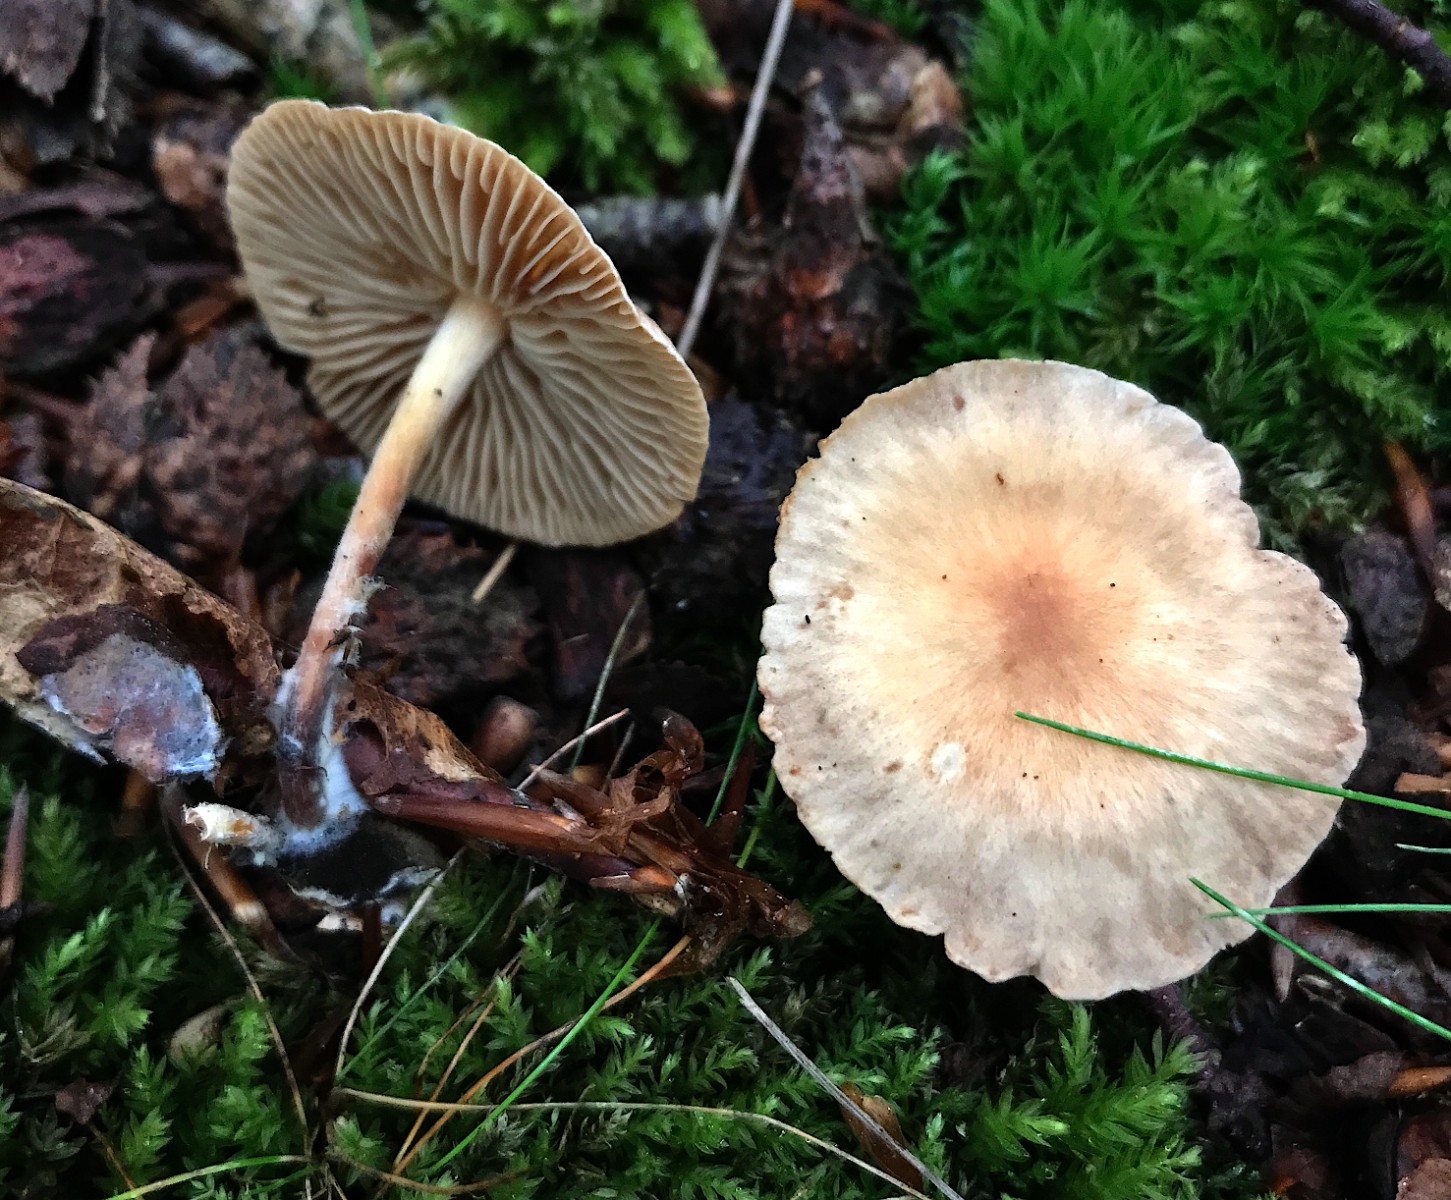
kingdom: Fungi
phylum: Basidiomycota
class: Agaricomycetes
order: Agaricales
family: Omphalotaceae
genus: Collybiopsis
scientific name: Collybiopsis peronata
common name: bestøvlet fladhat
